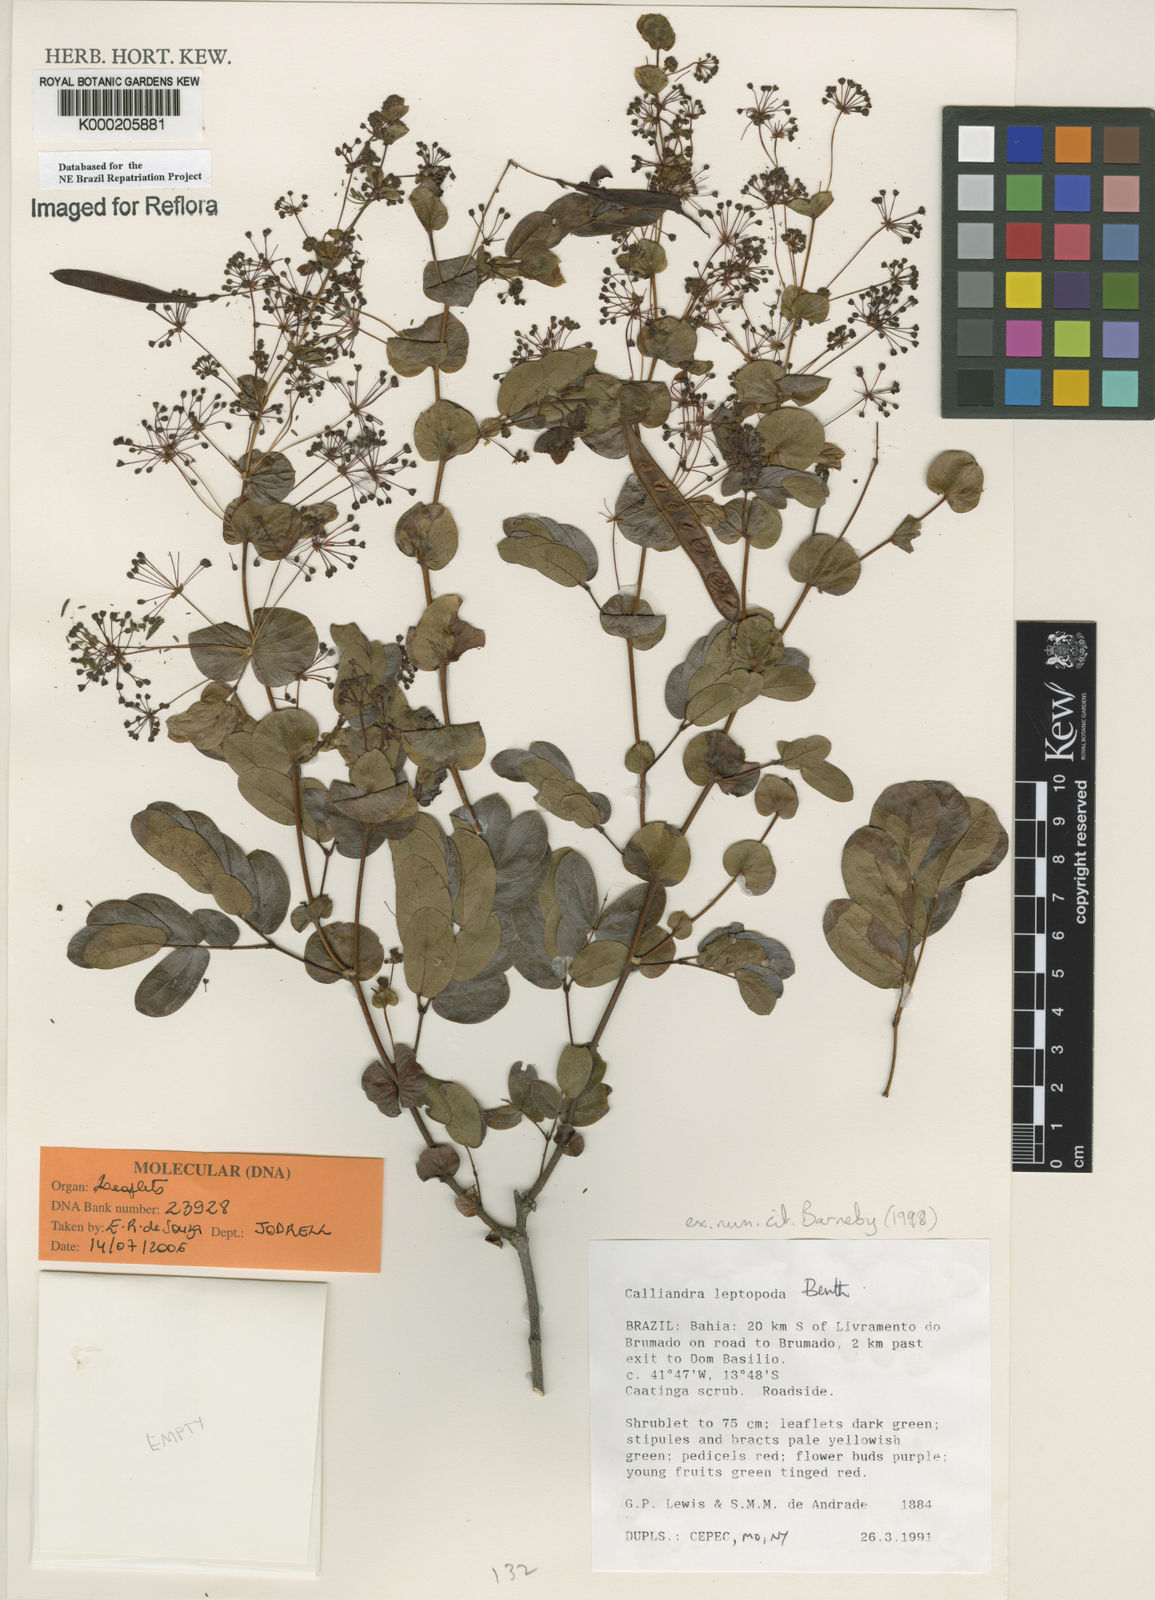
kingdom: Plantae
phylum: Tracheophyta
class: Magnoliopsida
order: Fabales
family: Fabaceae
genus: Calliandra
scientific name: Calliandra leptopoda
